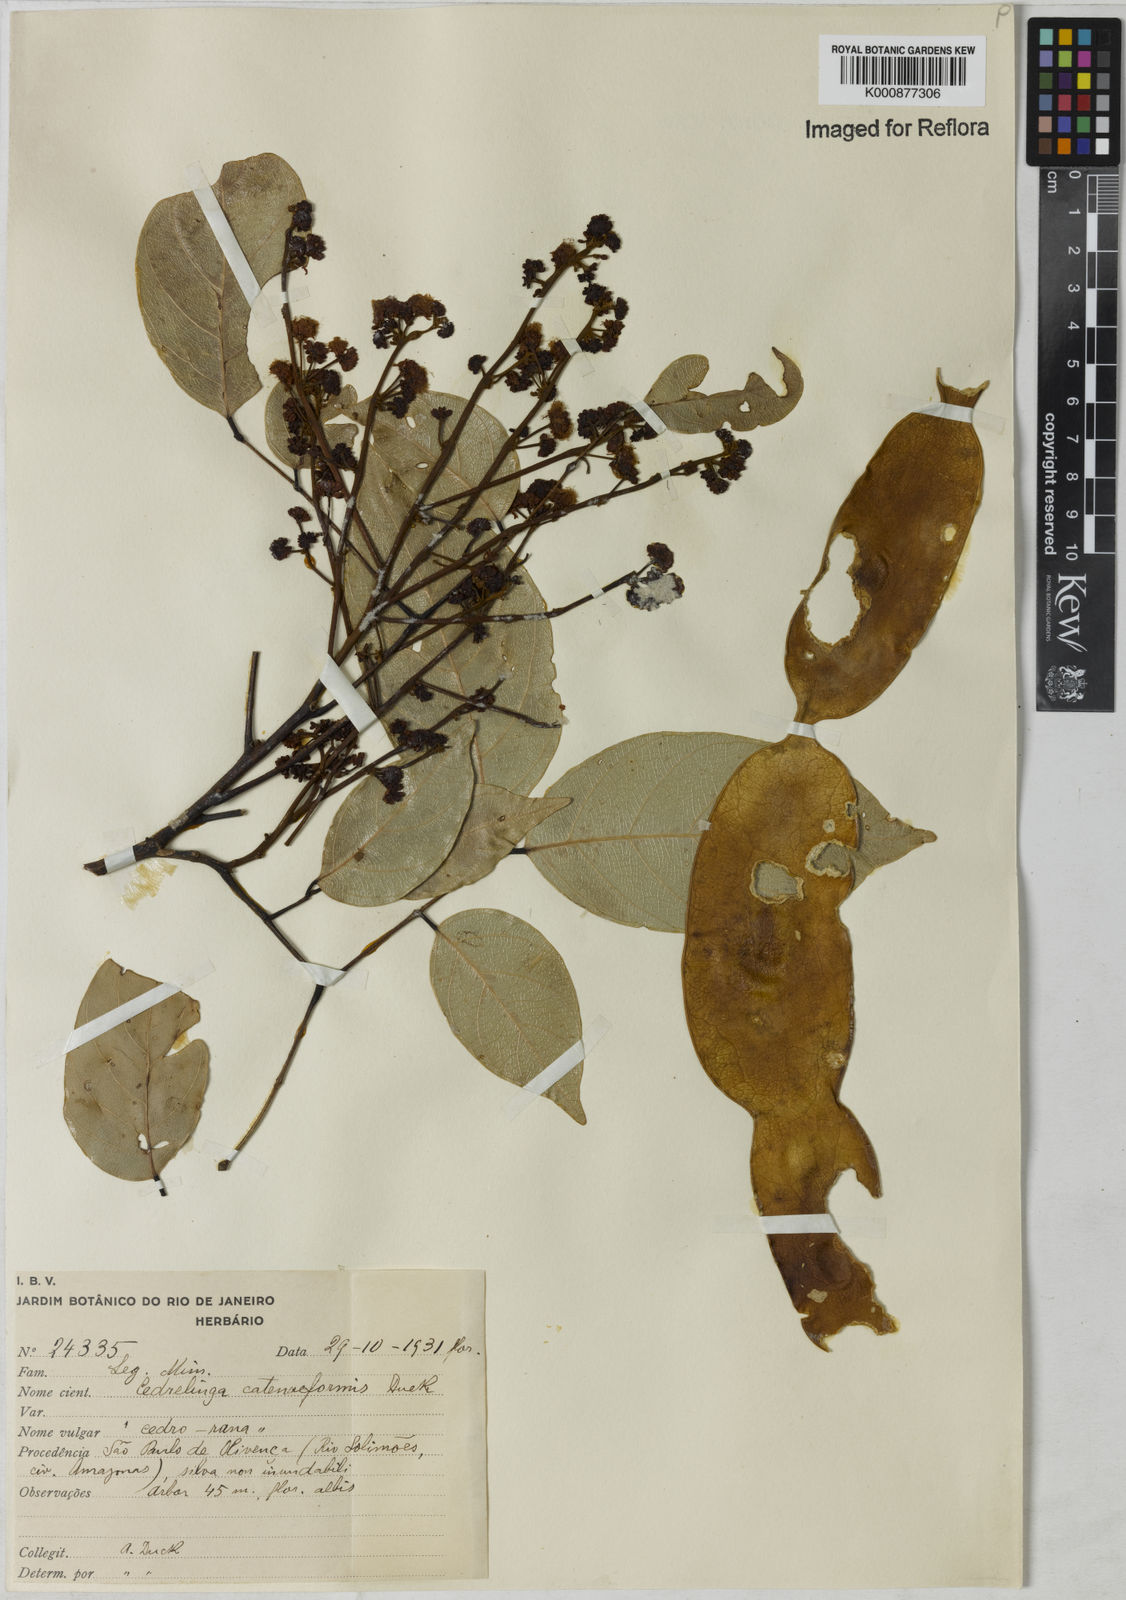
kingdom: Plantae
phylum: Tracheophyta
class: Magnoliopsida
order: Fabales
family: Fabaceae
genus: Cedrelinga
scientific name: Cedrelinga cateniformis
